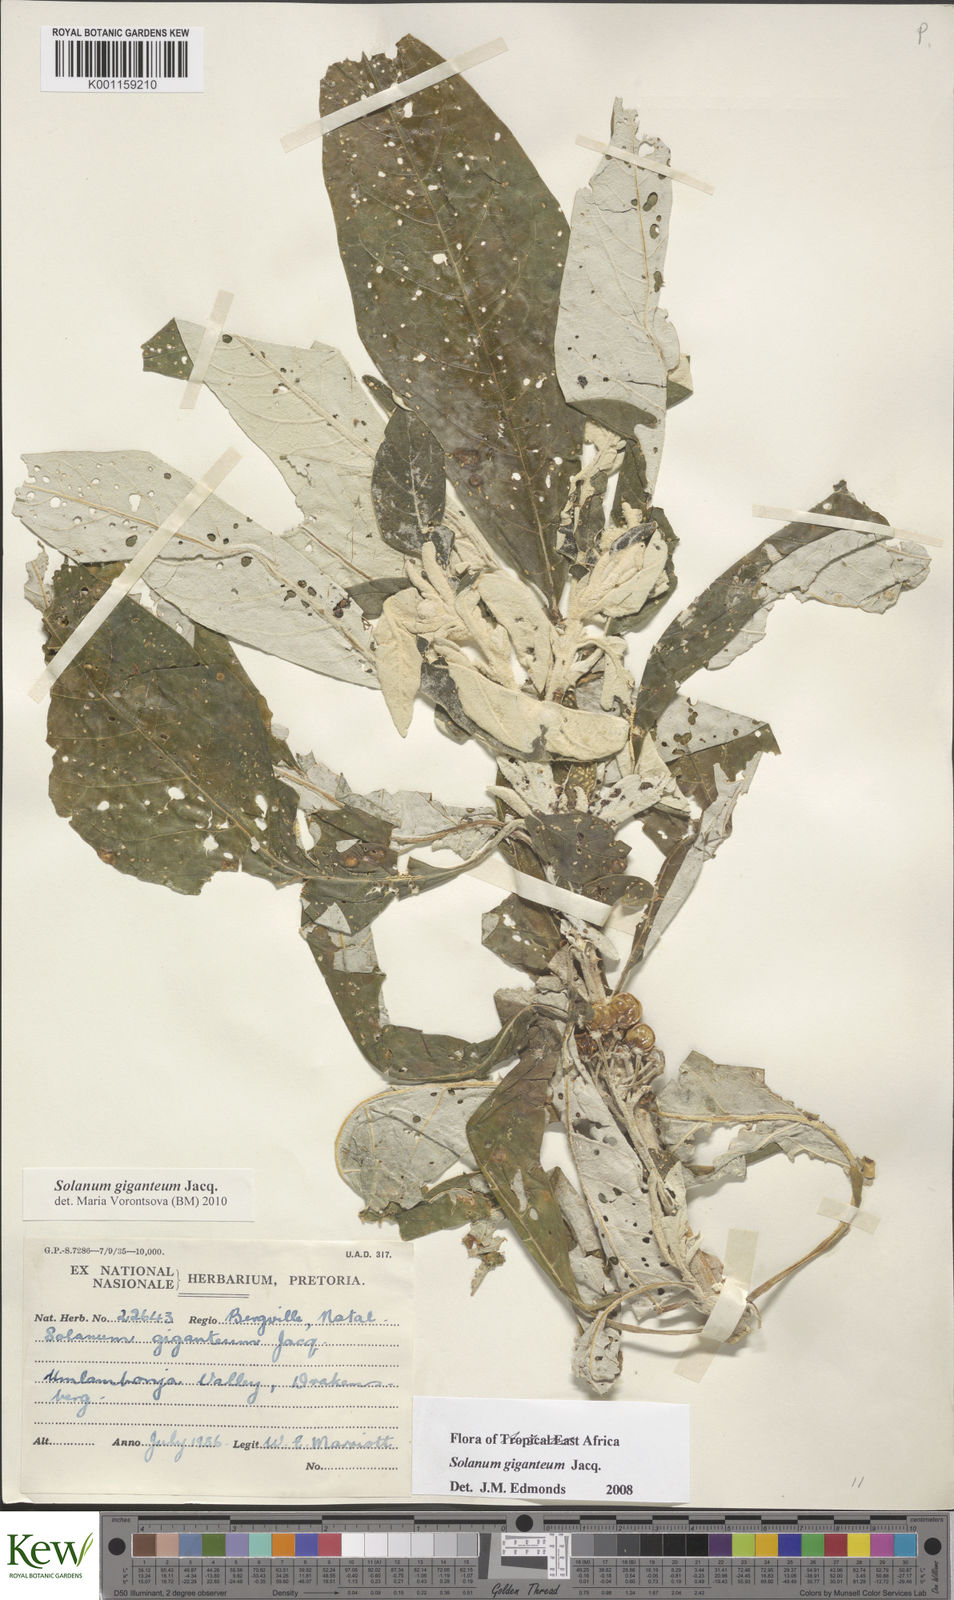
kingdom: Plantae
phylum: Tracheophyta
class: Magnoliopsida
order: Solanales
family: Solanaceae
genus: Solanum
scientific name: Solanum giganteum
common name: Healing-leaf-tree
